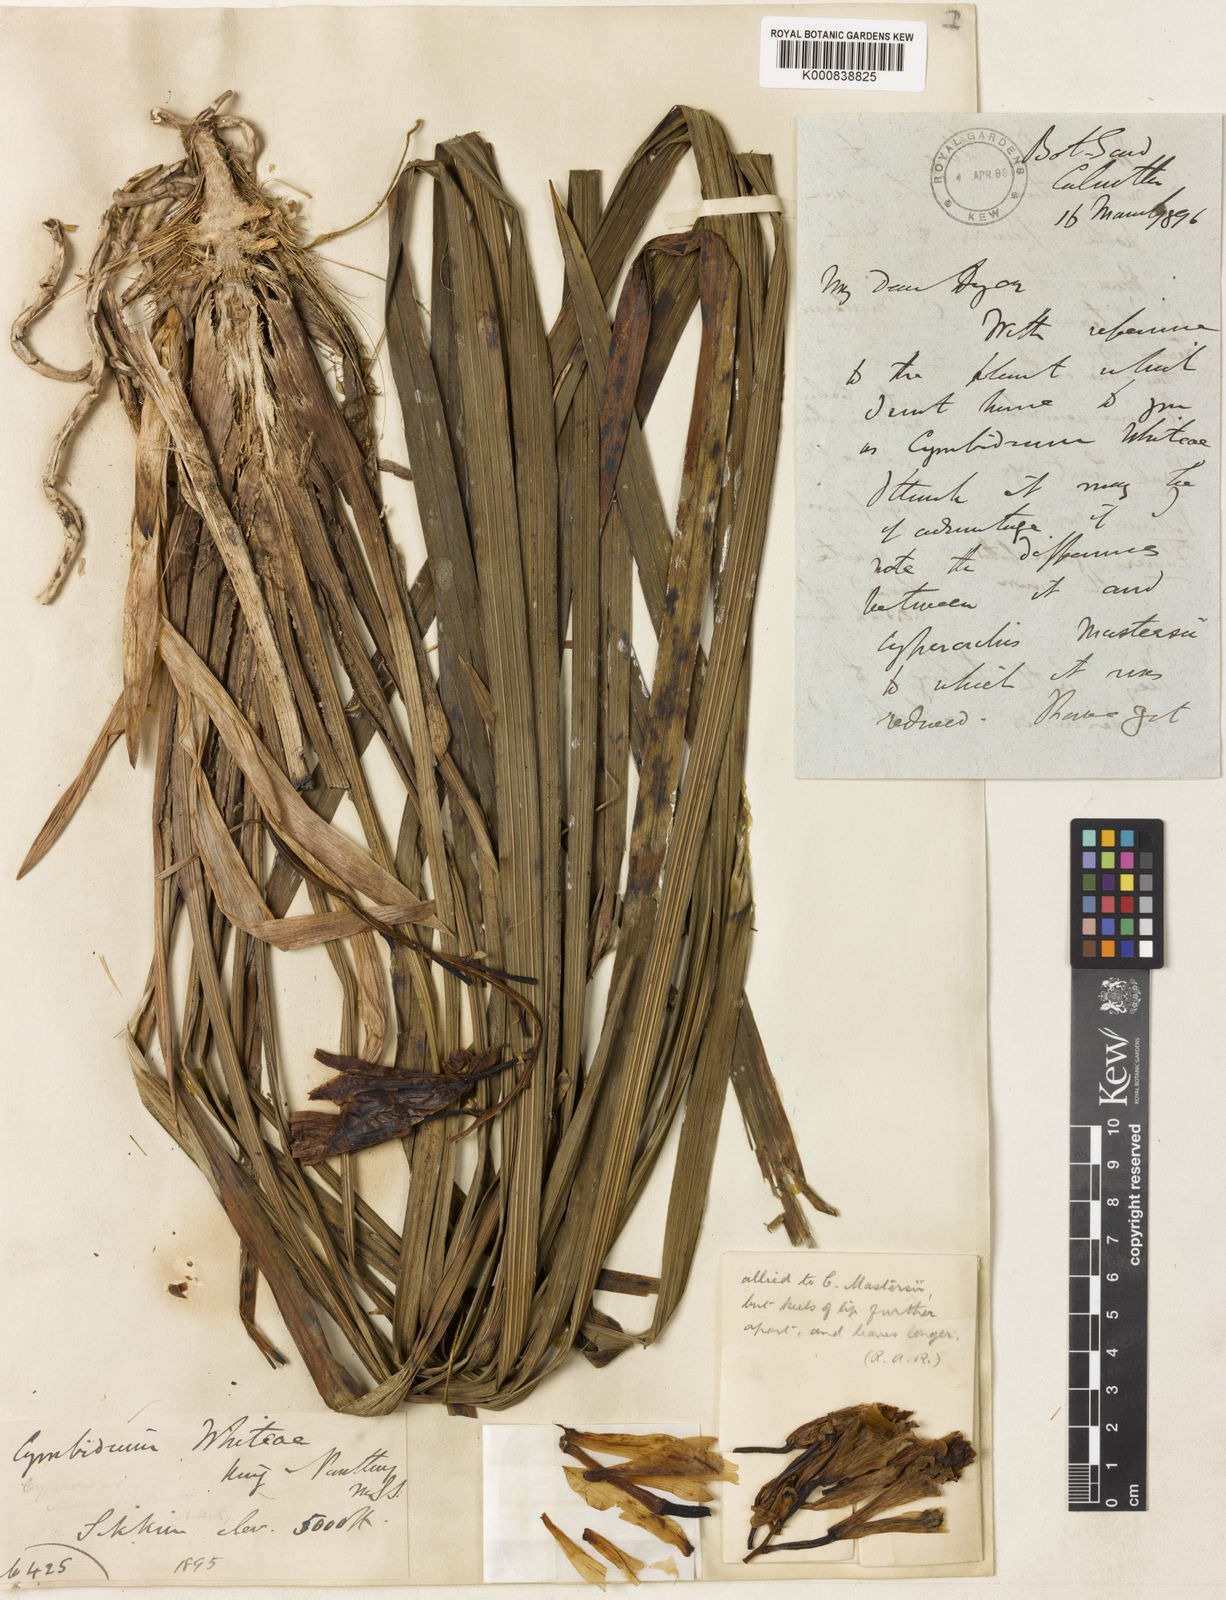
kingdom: Plantae
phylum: Tracheophyta
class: Liliopsida
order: Asparagales
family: Orchidaceae
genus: Cymbidium
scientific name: Cymbidium whiteae
